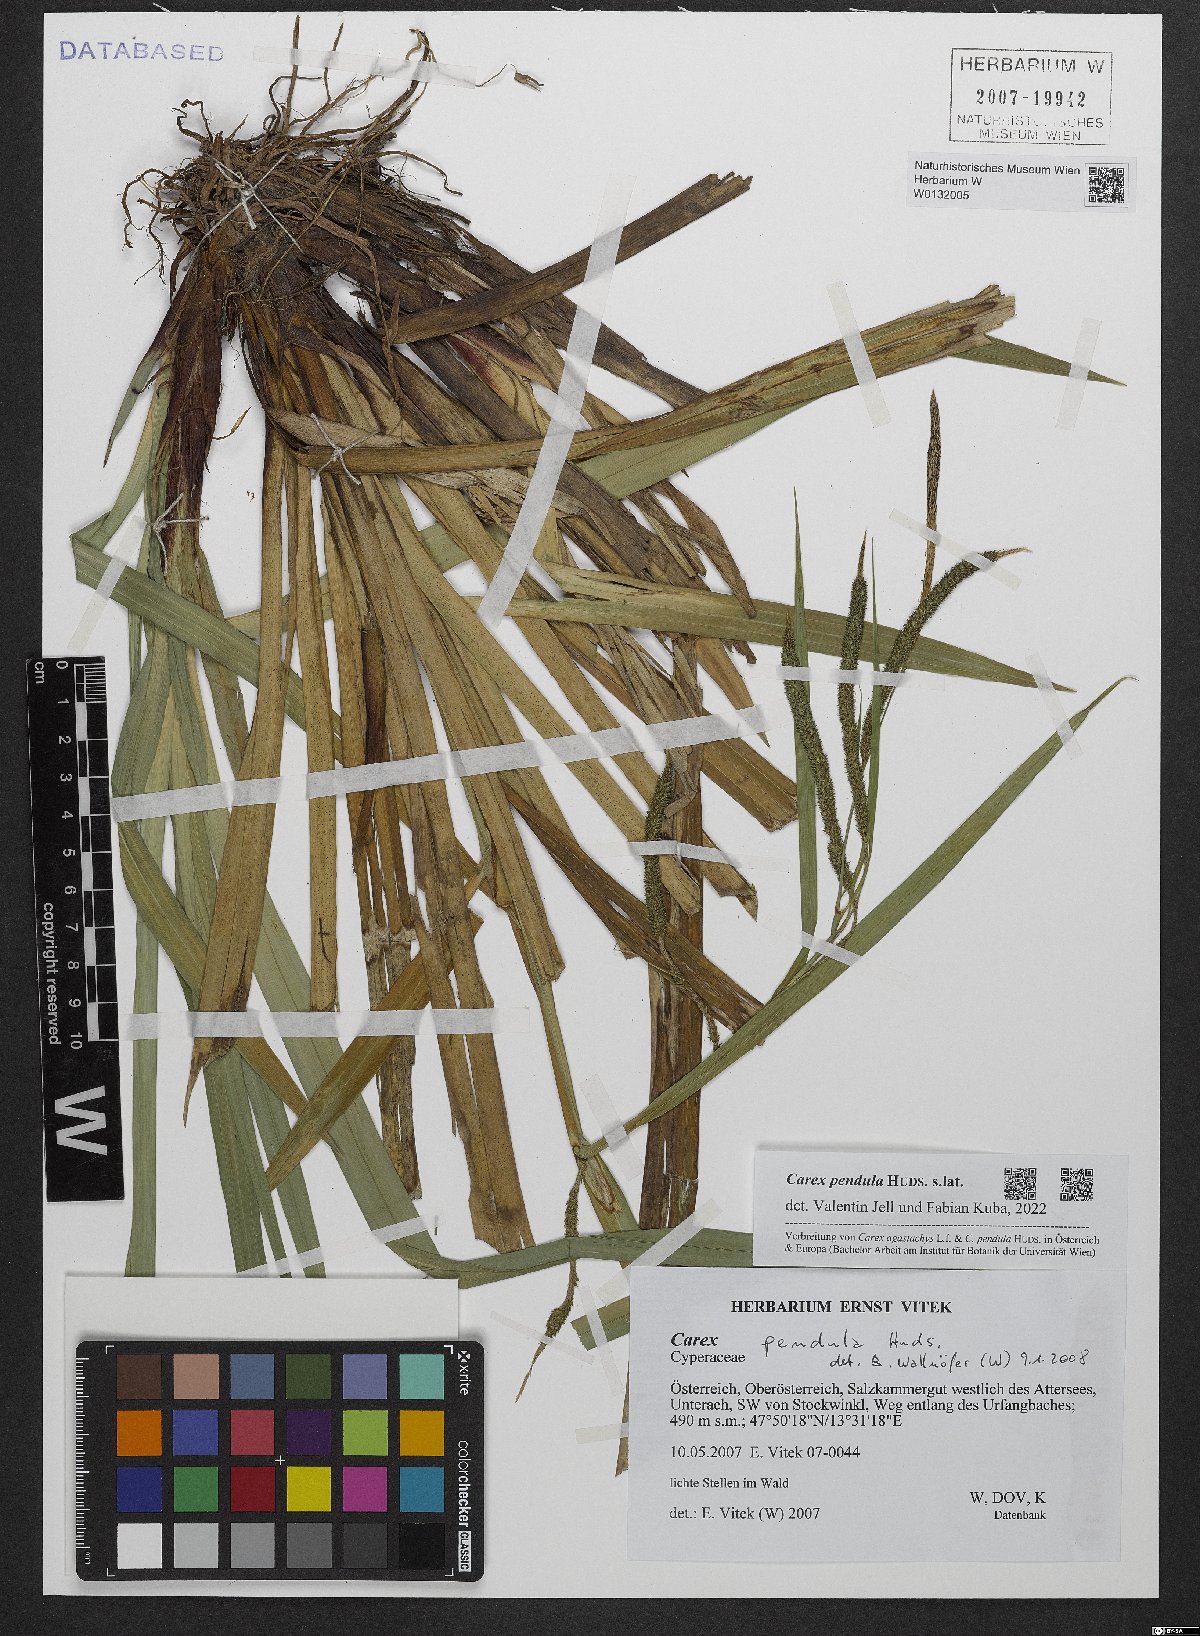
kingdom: Plantae
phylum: Tracheophyta
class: Liliopsida
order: Poales
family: Cyperaceae
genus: Carex
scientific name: Carex pendula
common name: Pendulous sedge
